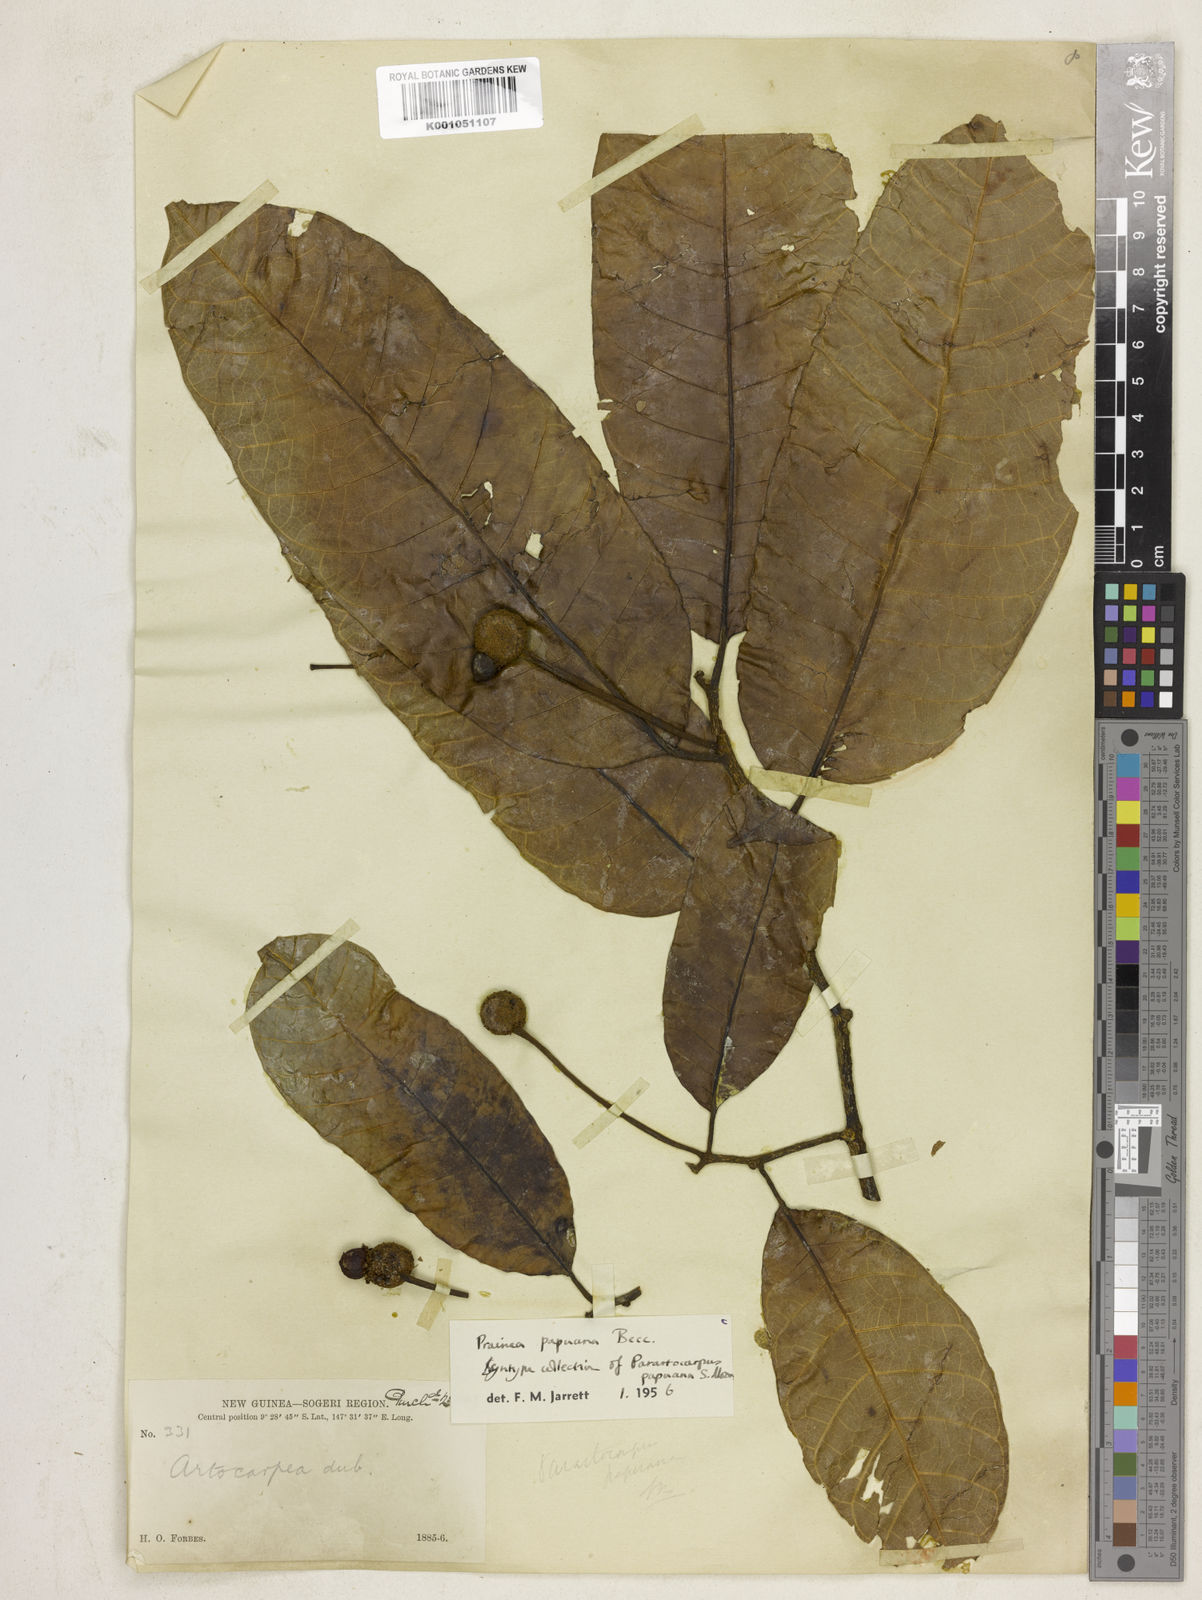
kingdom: Plantae
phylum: Tracheophyta
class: Magnoliopsida
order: Rosales
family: Moraceae
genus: Prainea
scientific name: Prainea limpato
